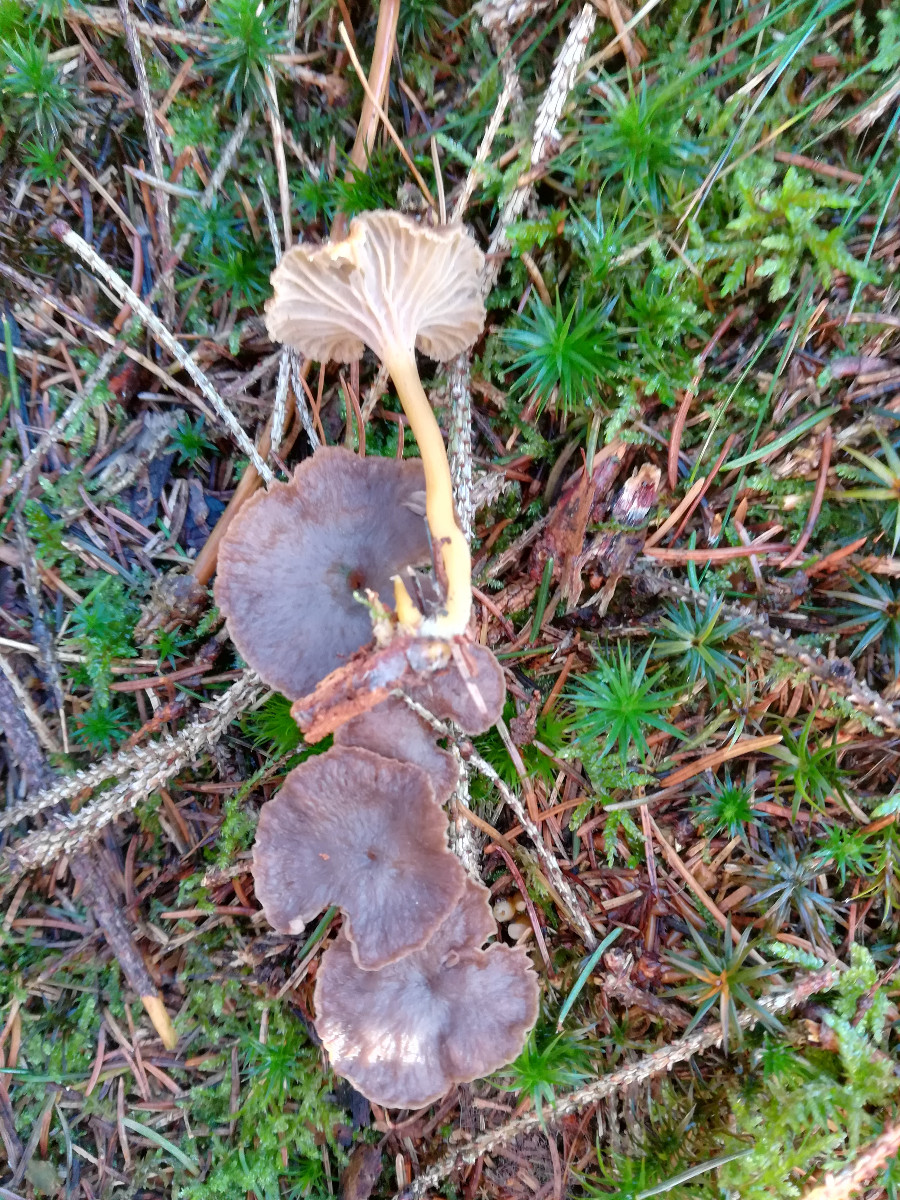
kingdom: Fungi
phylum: Basidiomycota
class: Agaricomycetes
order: Cantharellales
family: Hydnaceae
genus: Craterellus
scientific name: Craterellus tubaeformis
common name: tragt-kantarel
